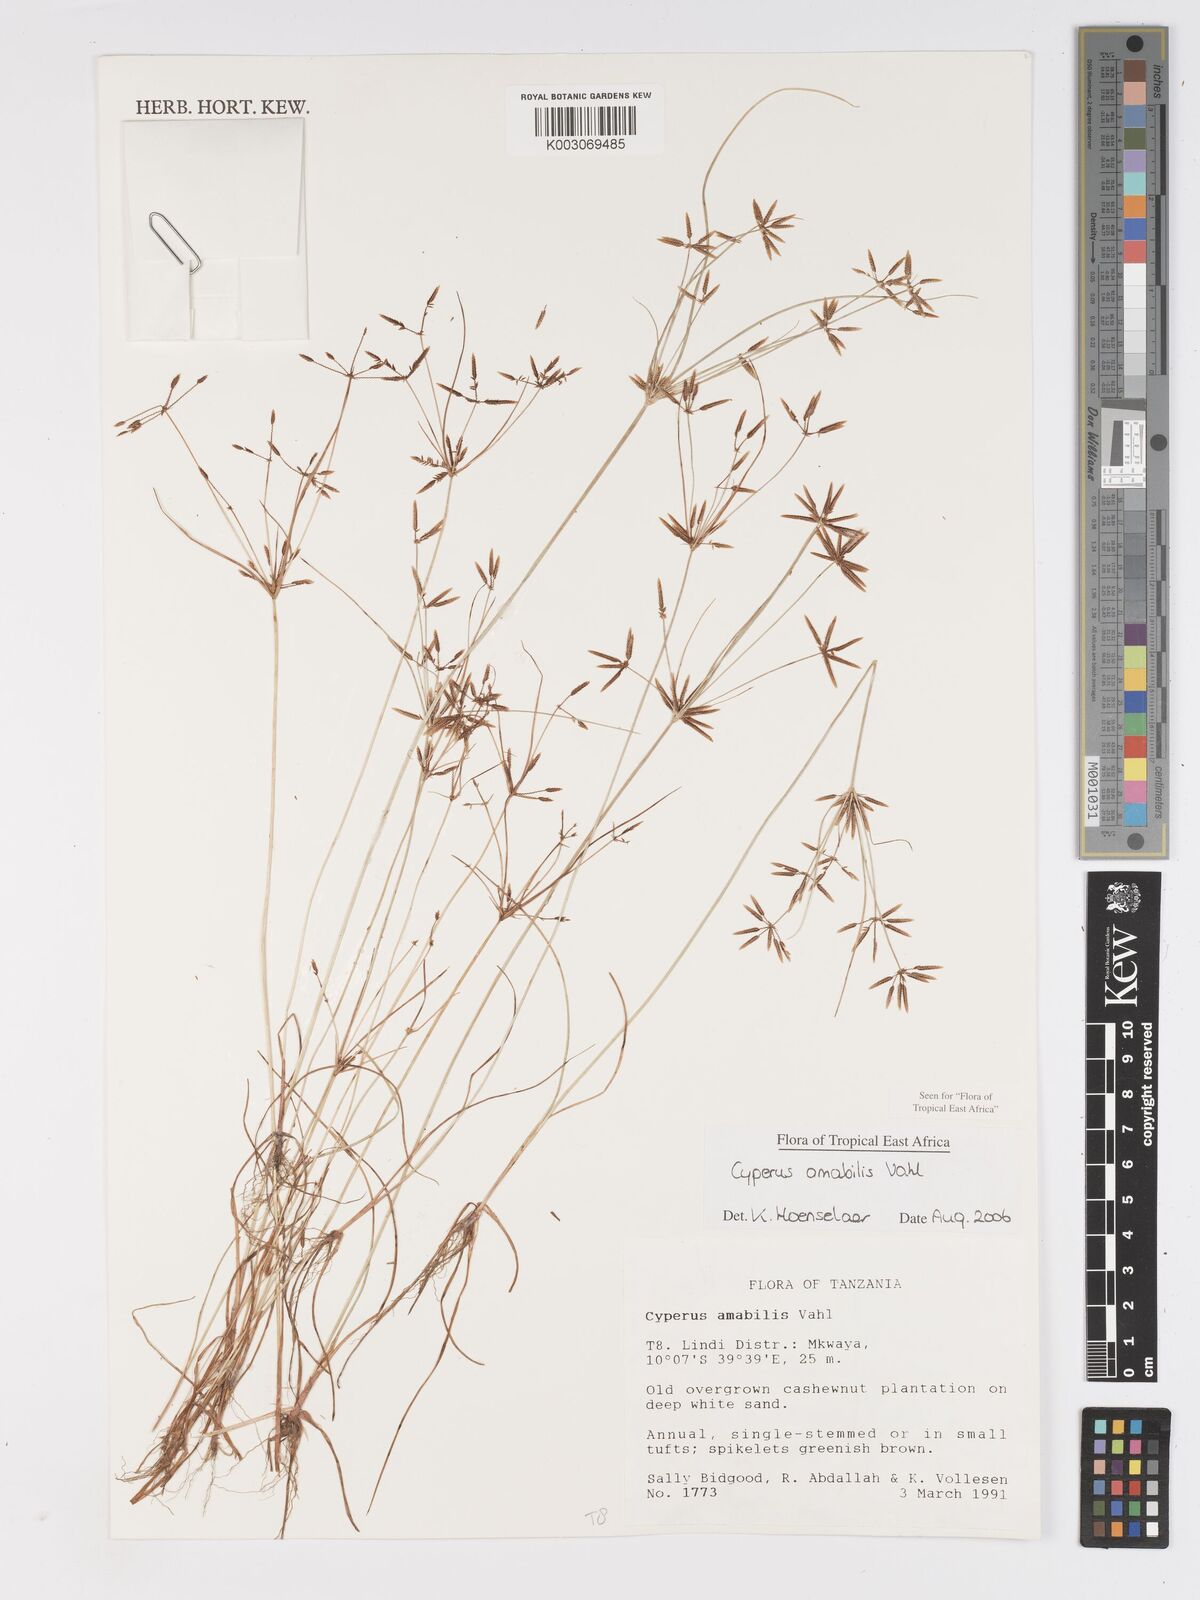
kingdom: Plantae
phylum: Tracheophyta
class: Liliopsida
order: Poales
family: Cyperaceae
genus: Cyperus
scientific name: Cyperus amabilis
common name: Foothill flat sedge
